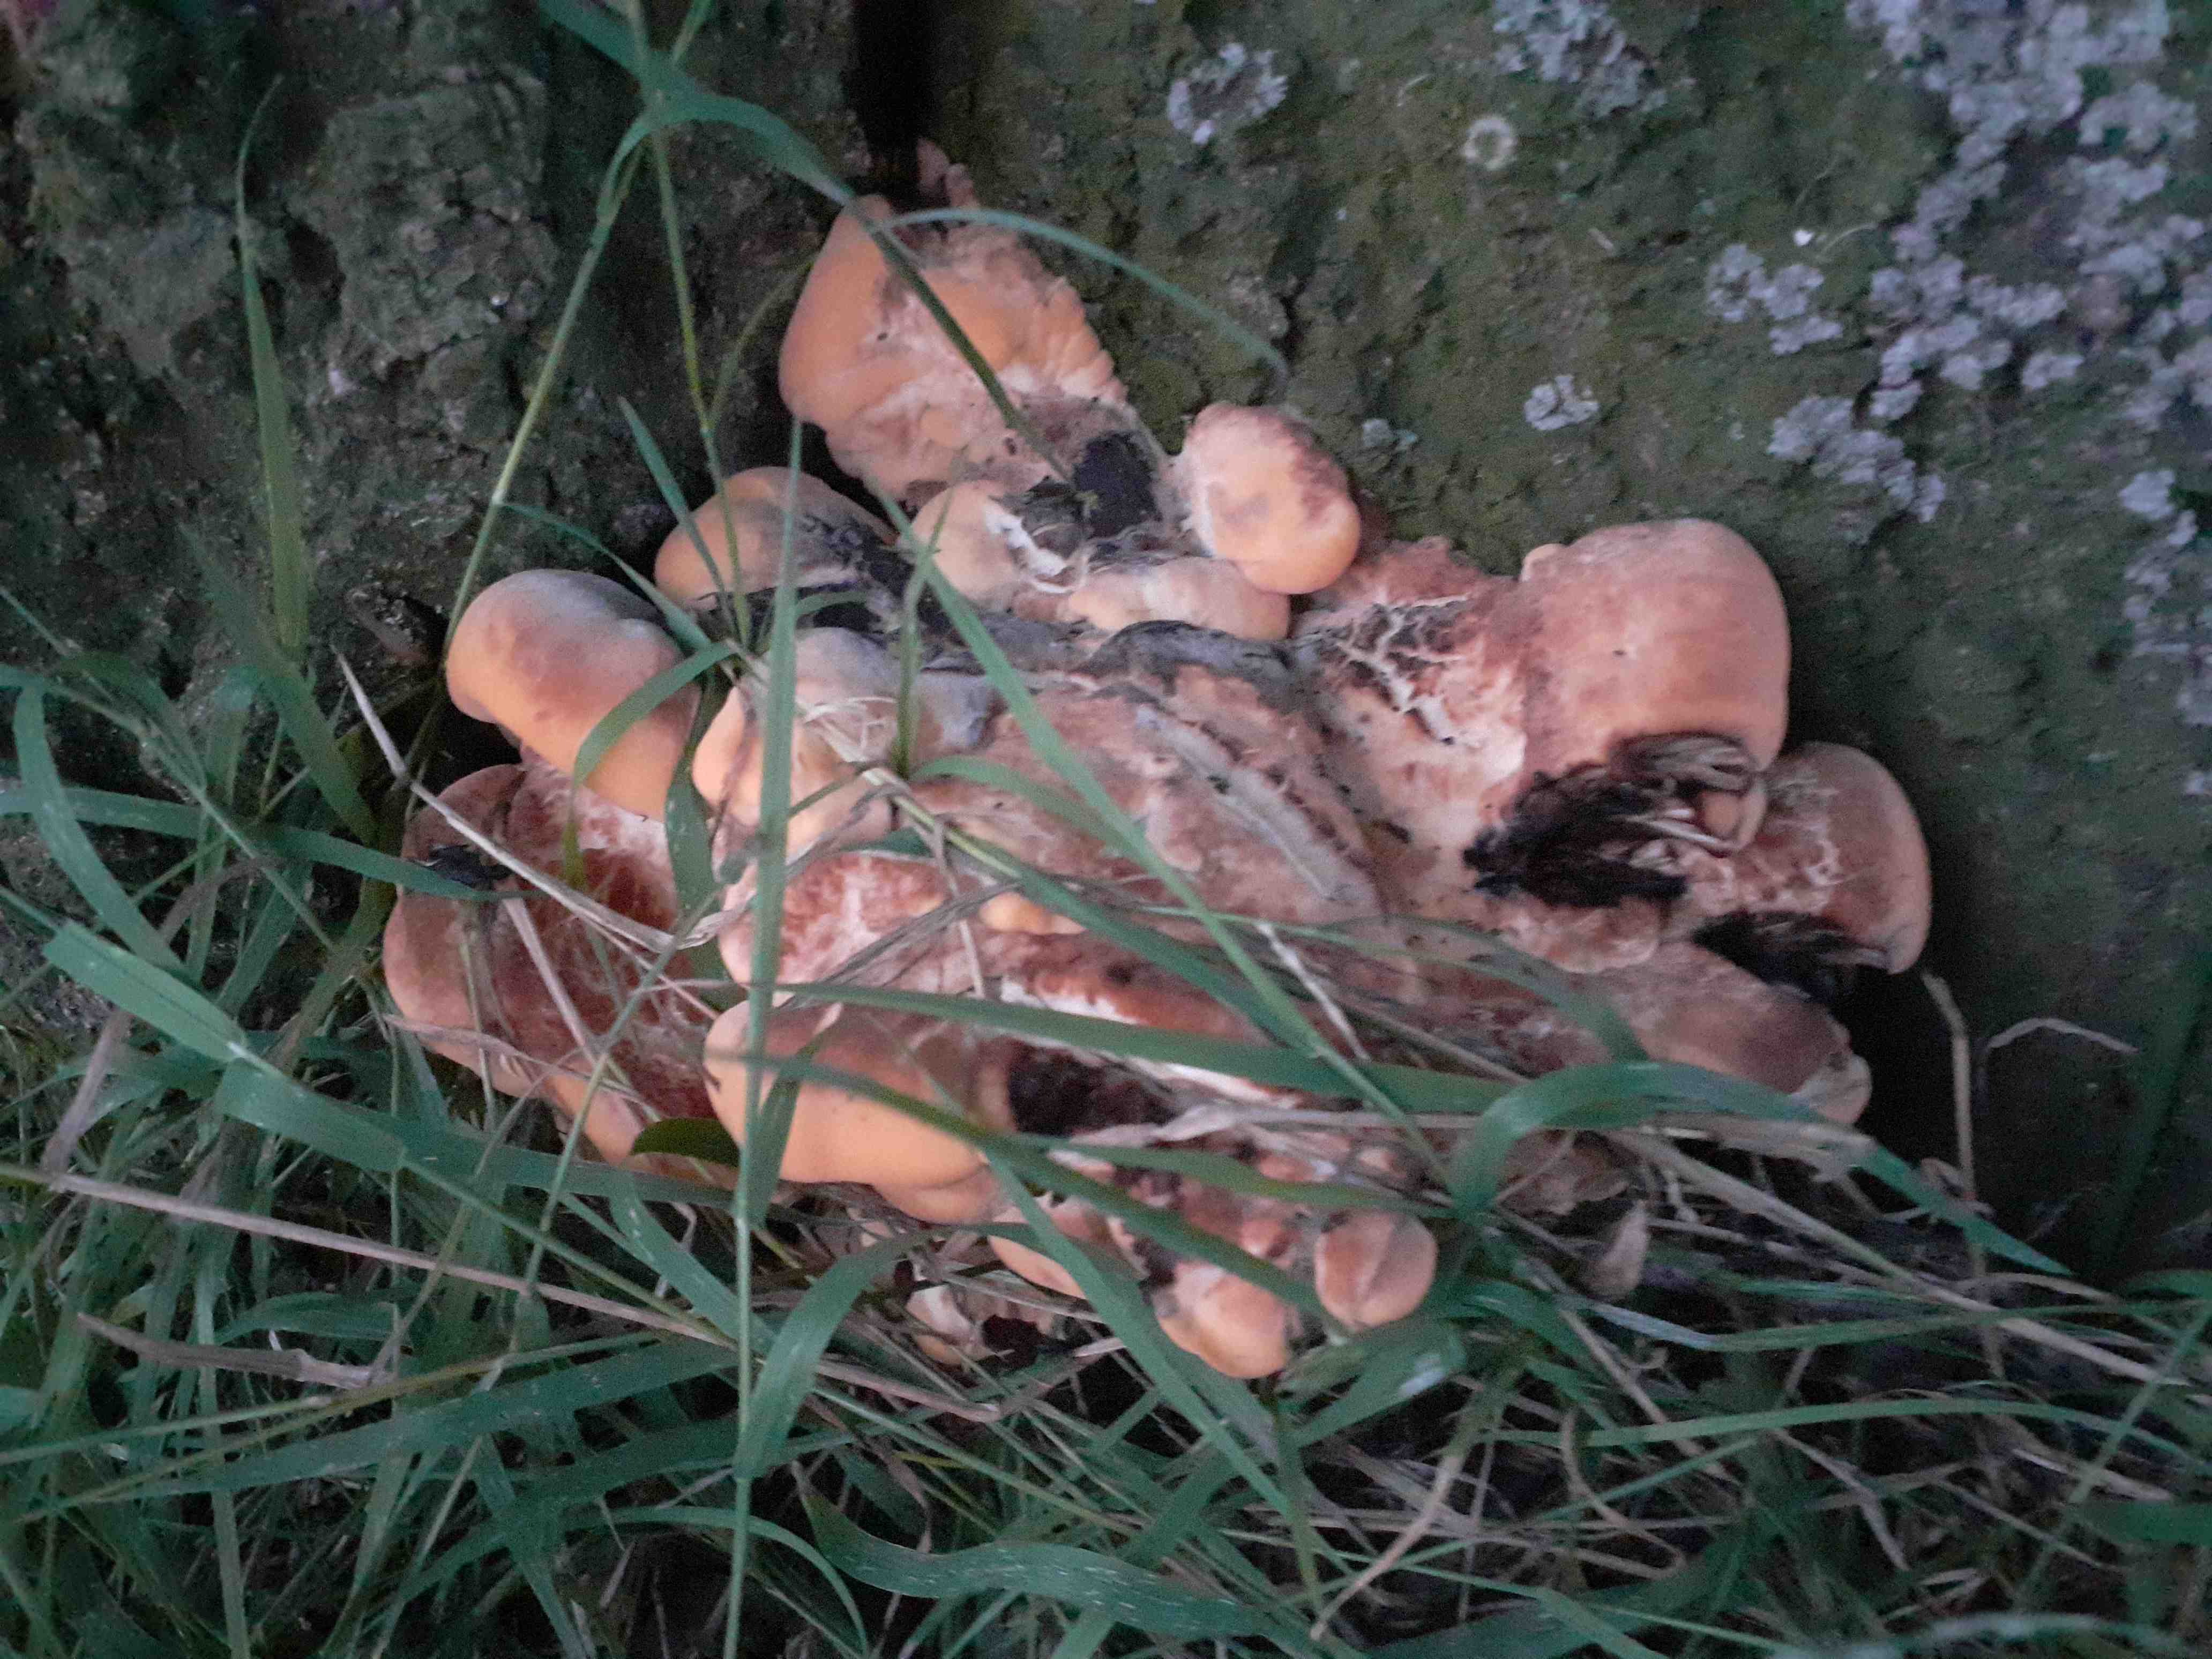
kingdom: Fungi
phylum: Basidiomycota
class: Agaricomycetes
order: Polyporales
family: Meripilaceae
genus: Meripilus
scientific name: Meripilus giganteus
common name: kæmpeporesvamp
